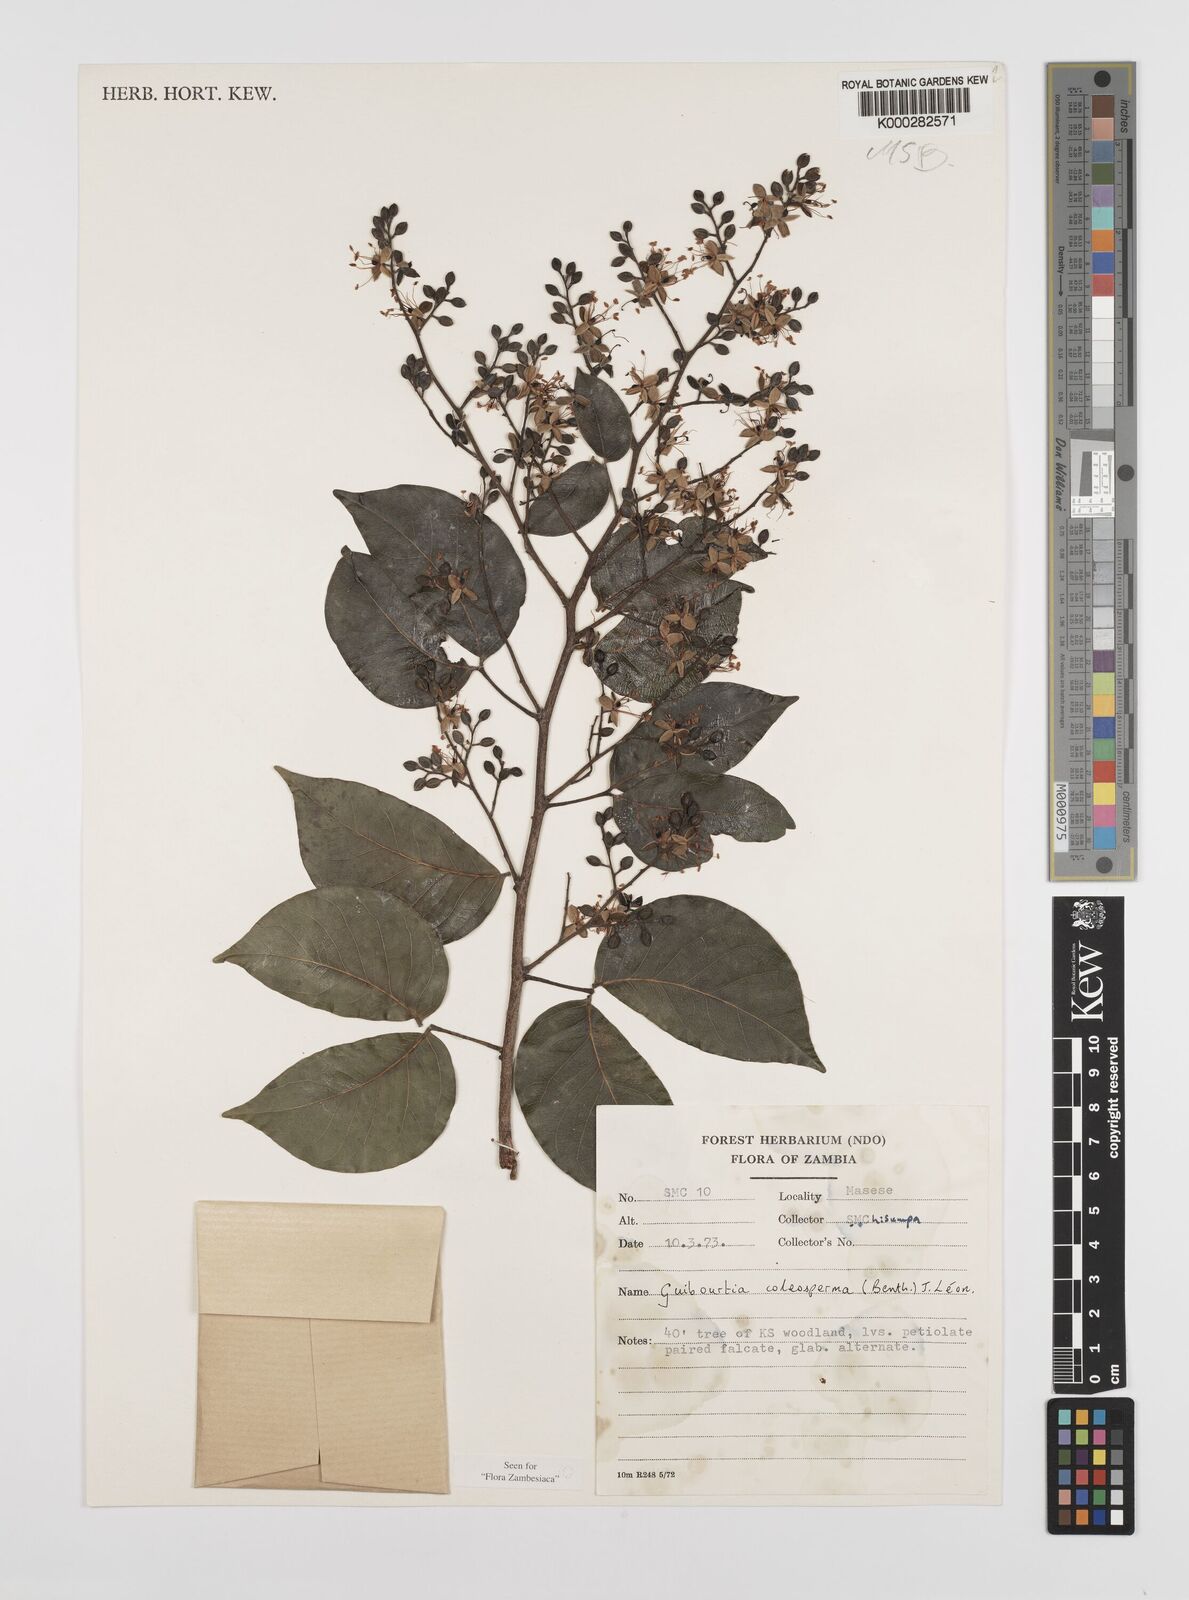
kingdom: Plantae
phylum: Tracheophyta
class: Magnoliopsida
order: Fabales
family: Fabaceae
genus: Guibourtia
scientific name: Guibourtia coleosperma
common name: African rosewoood
